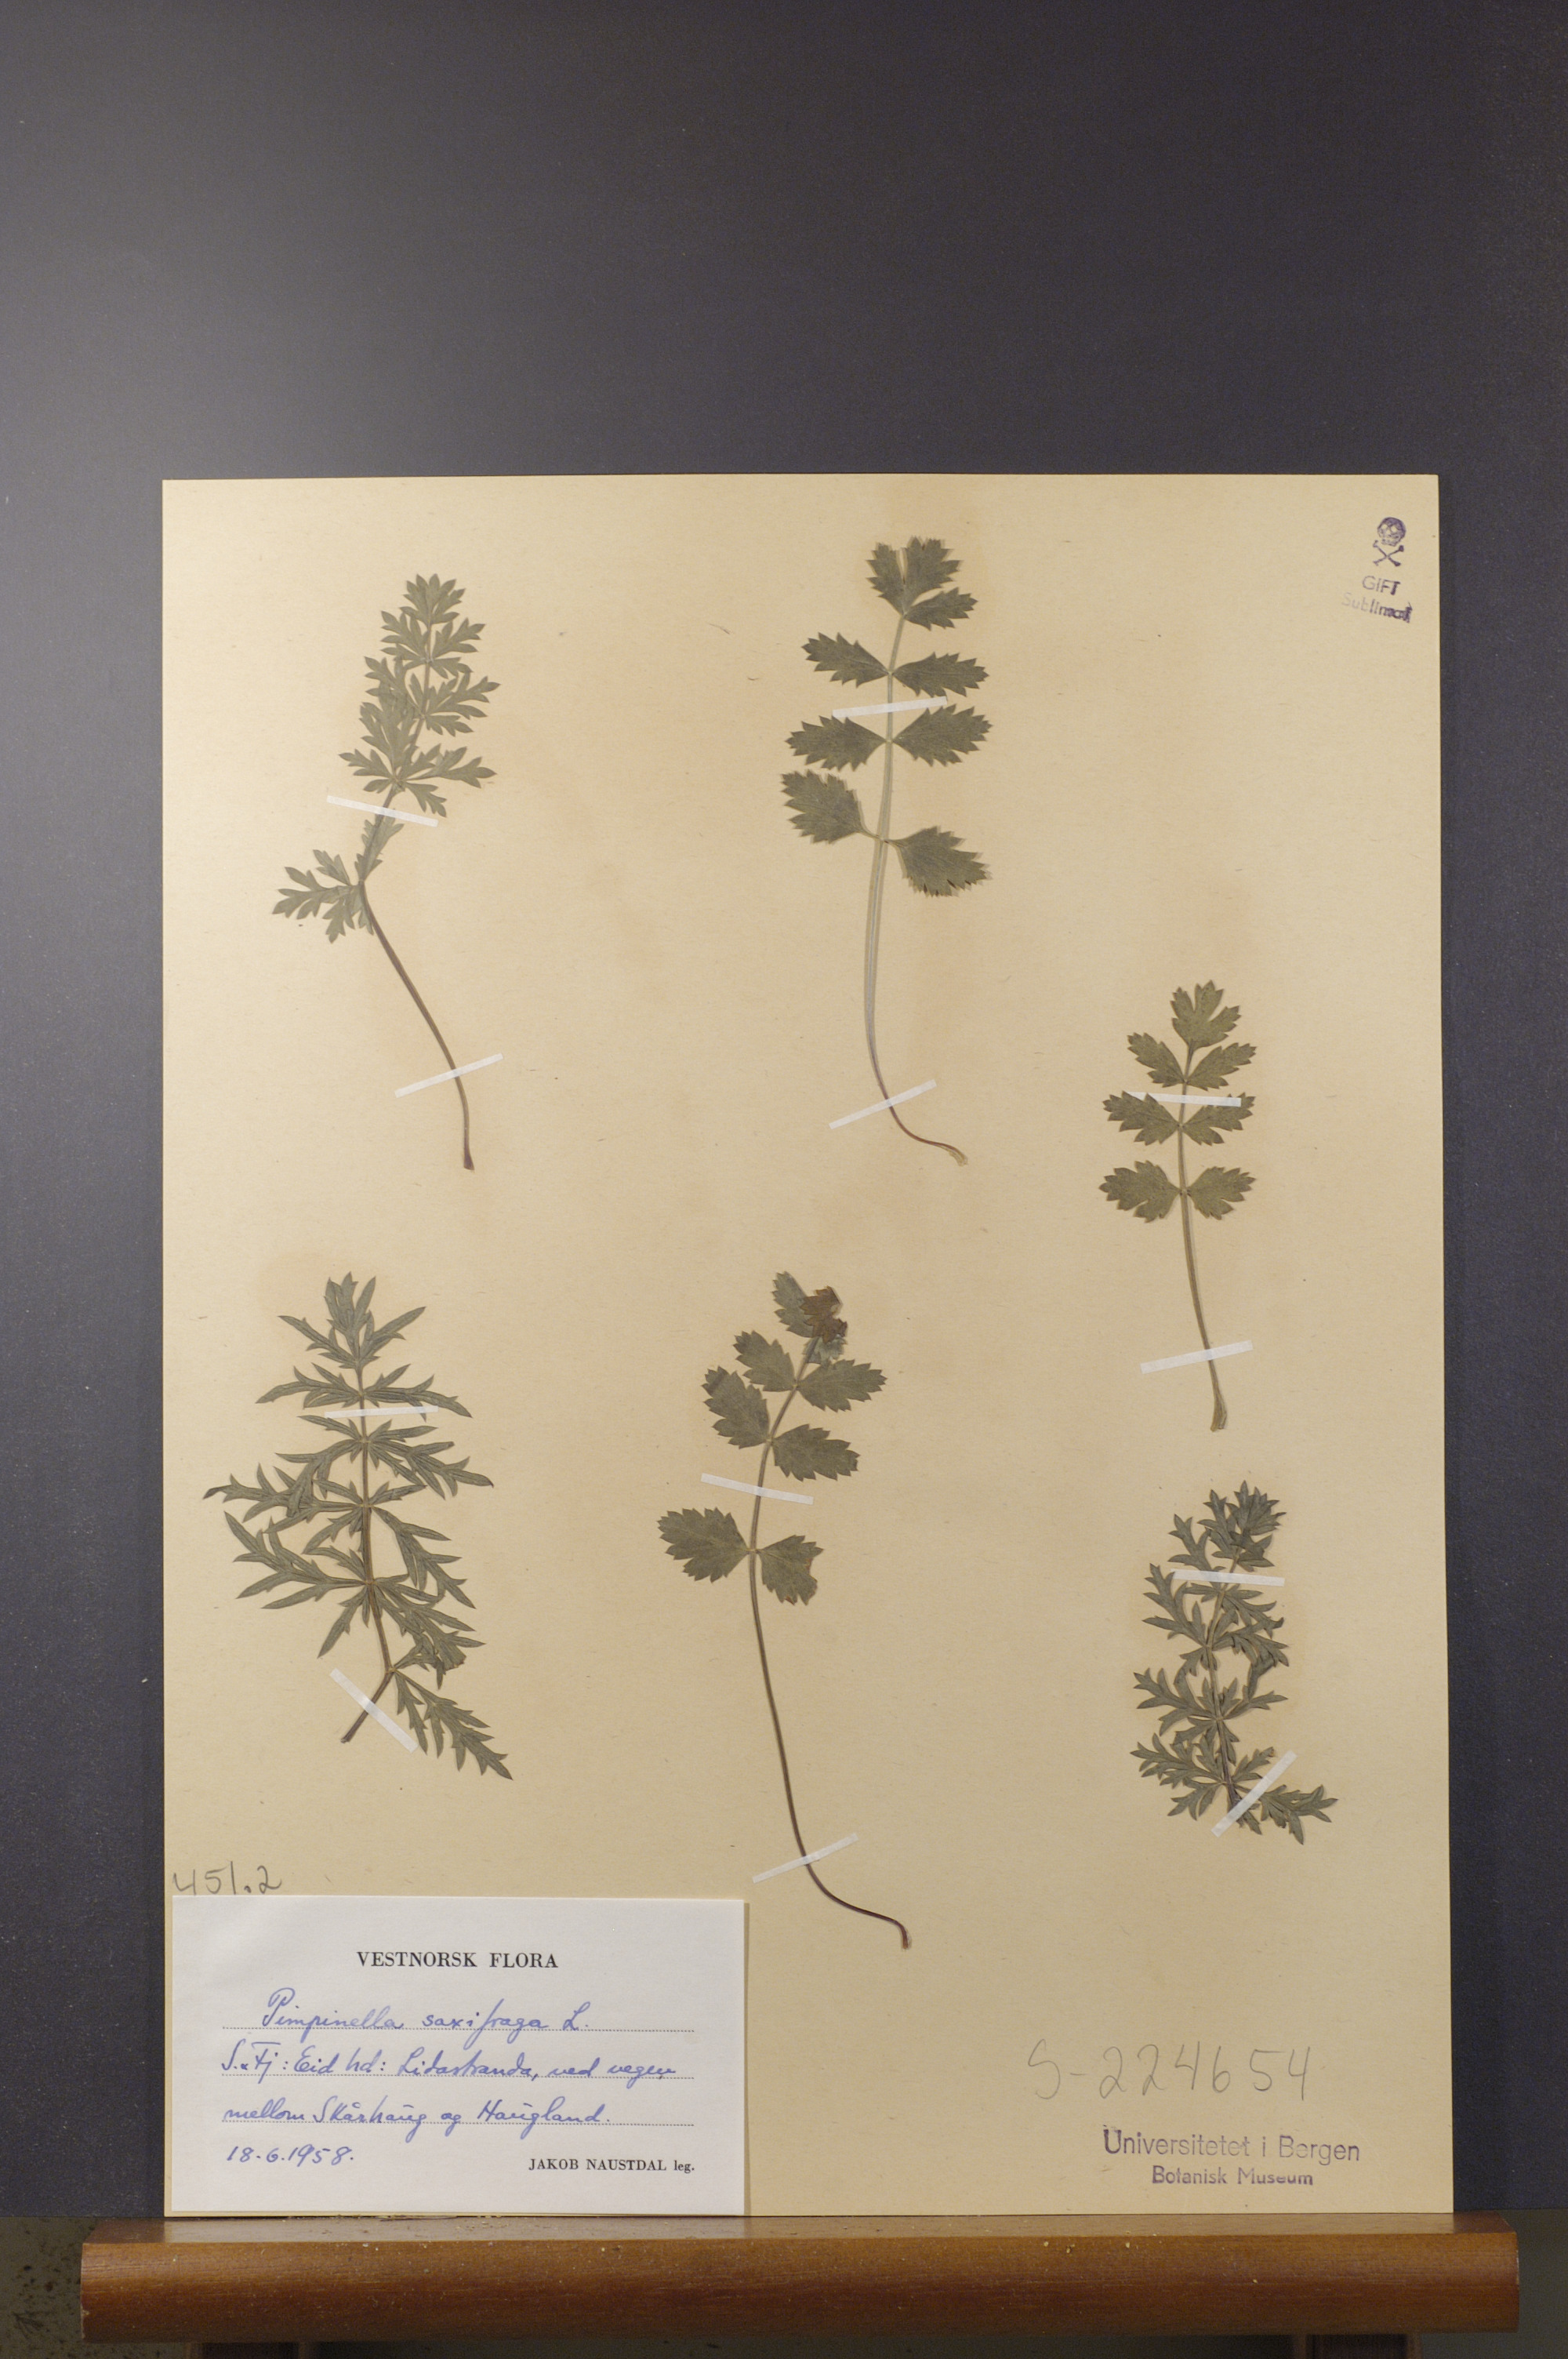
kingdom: Plantae
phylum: Tracheophyta
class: Magnoliopsida
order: Apiales
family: Apiaceae
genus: Pimpinella
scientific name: Pimpinella saxifraga
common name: Burnet-saxifrage
